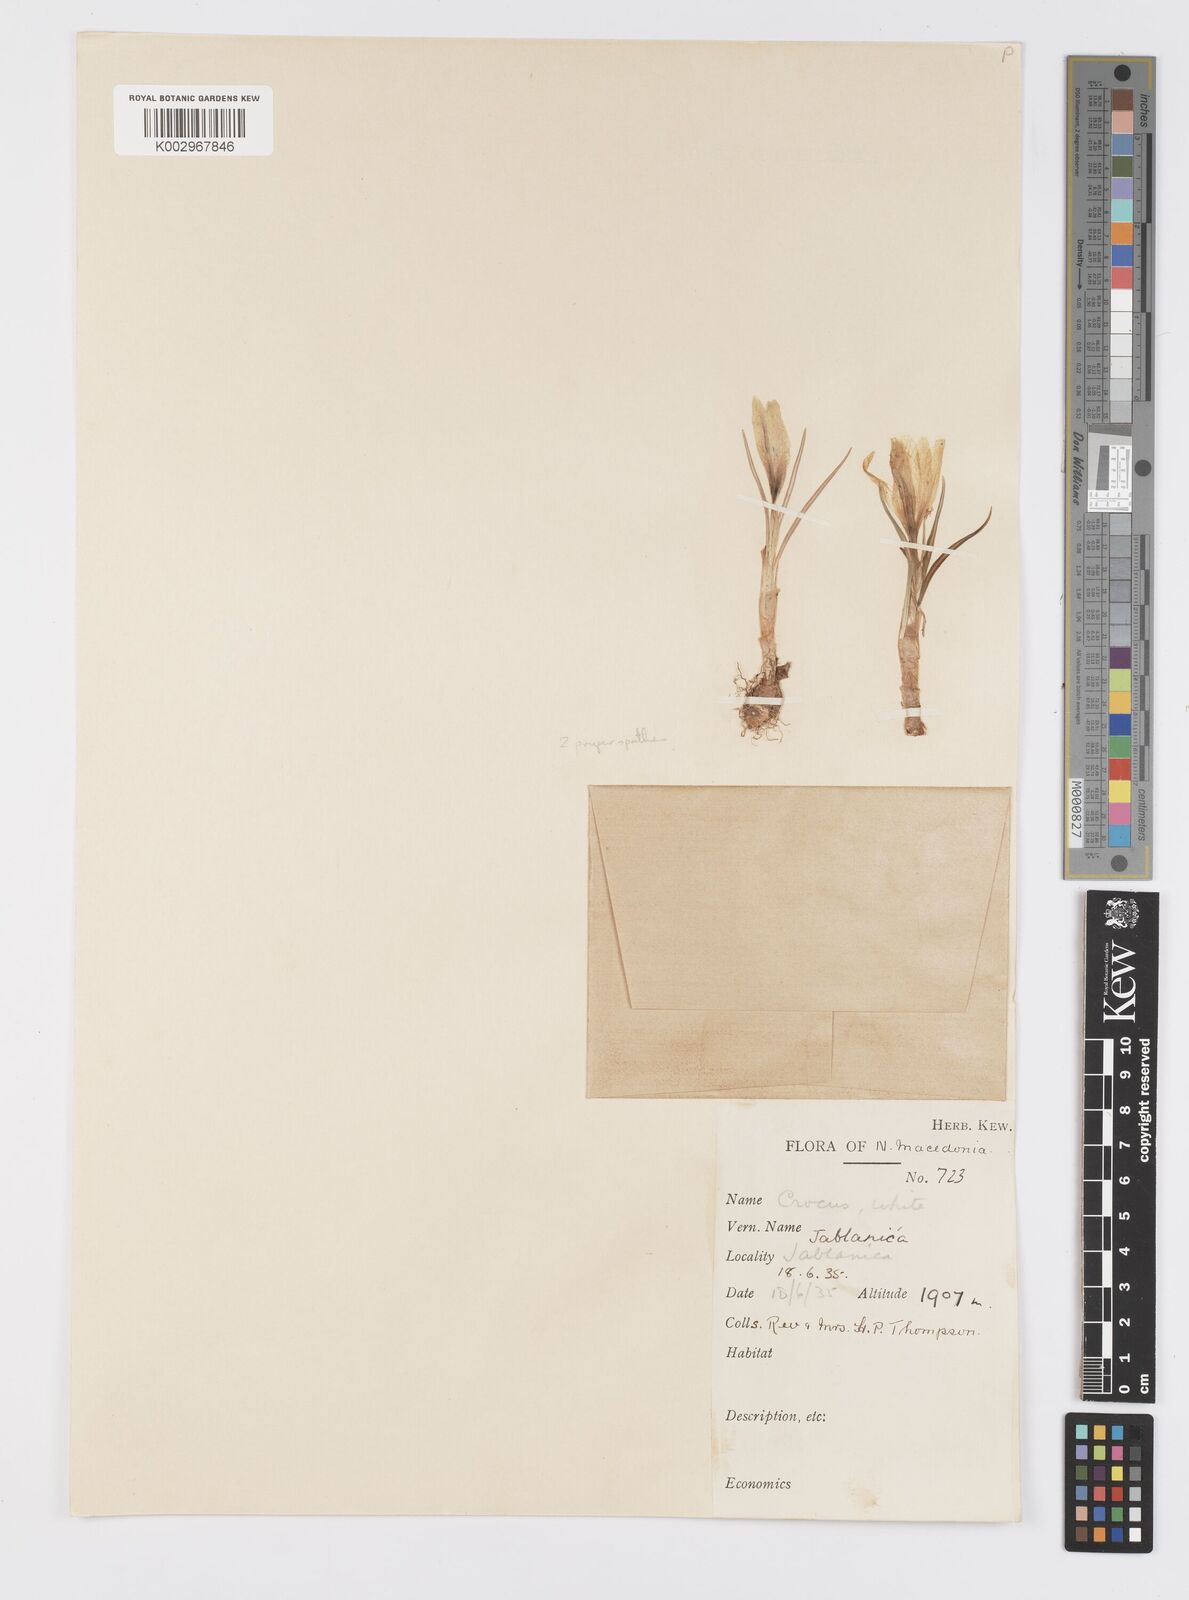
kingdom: Plantae
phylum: Tracheophyta
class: Liliopsida
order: Asparagales
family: Iridaceae
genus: Crocus
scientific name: Crocus cvijicii
